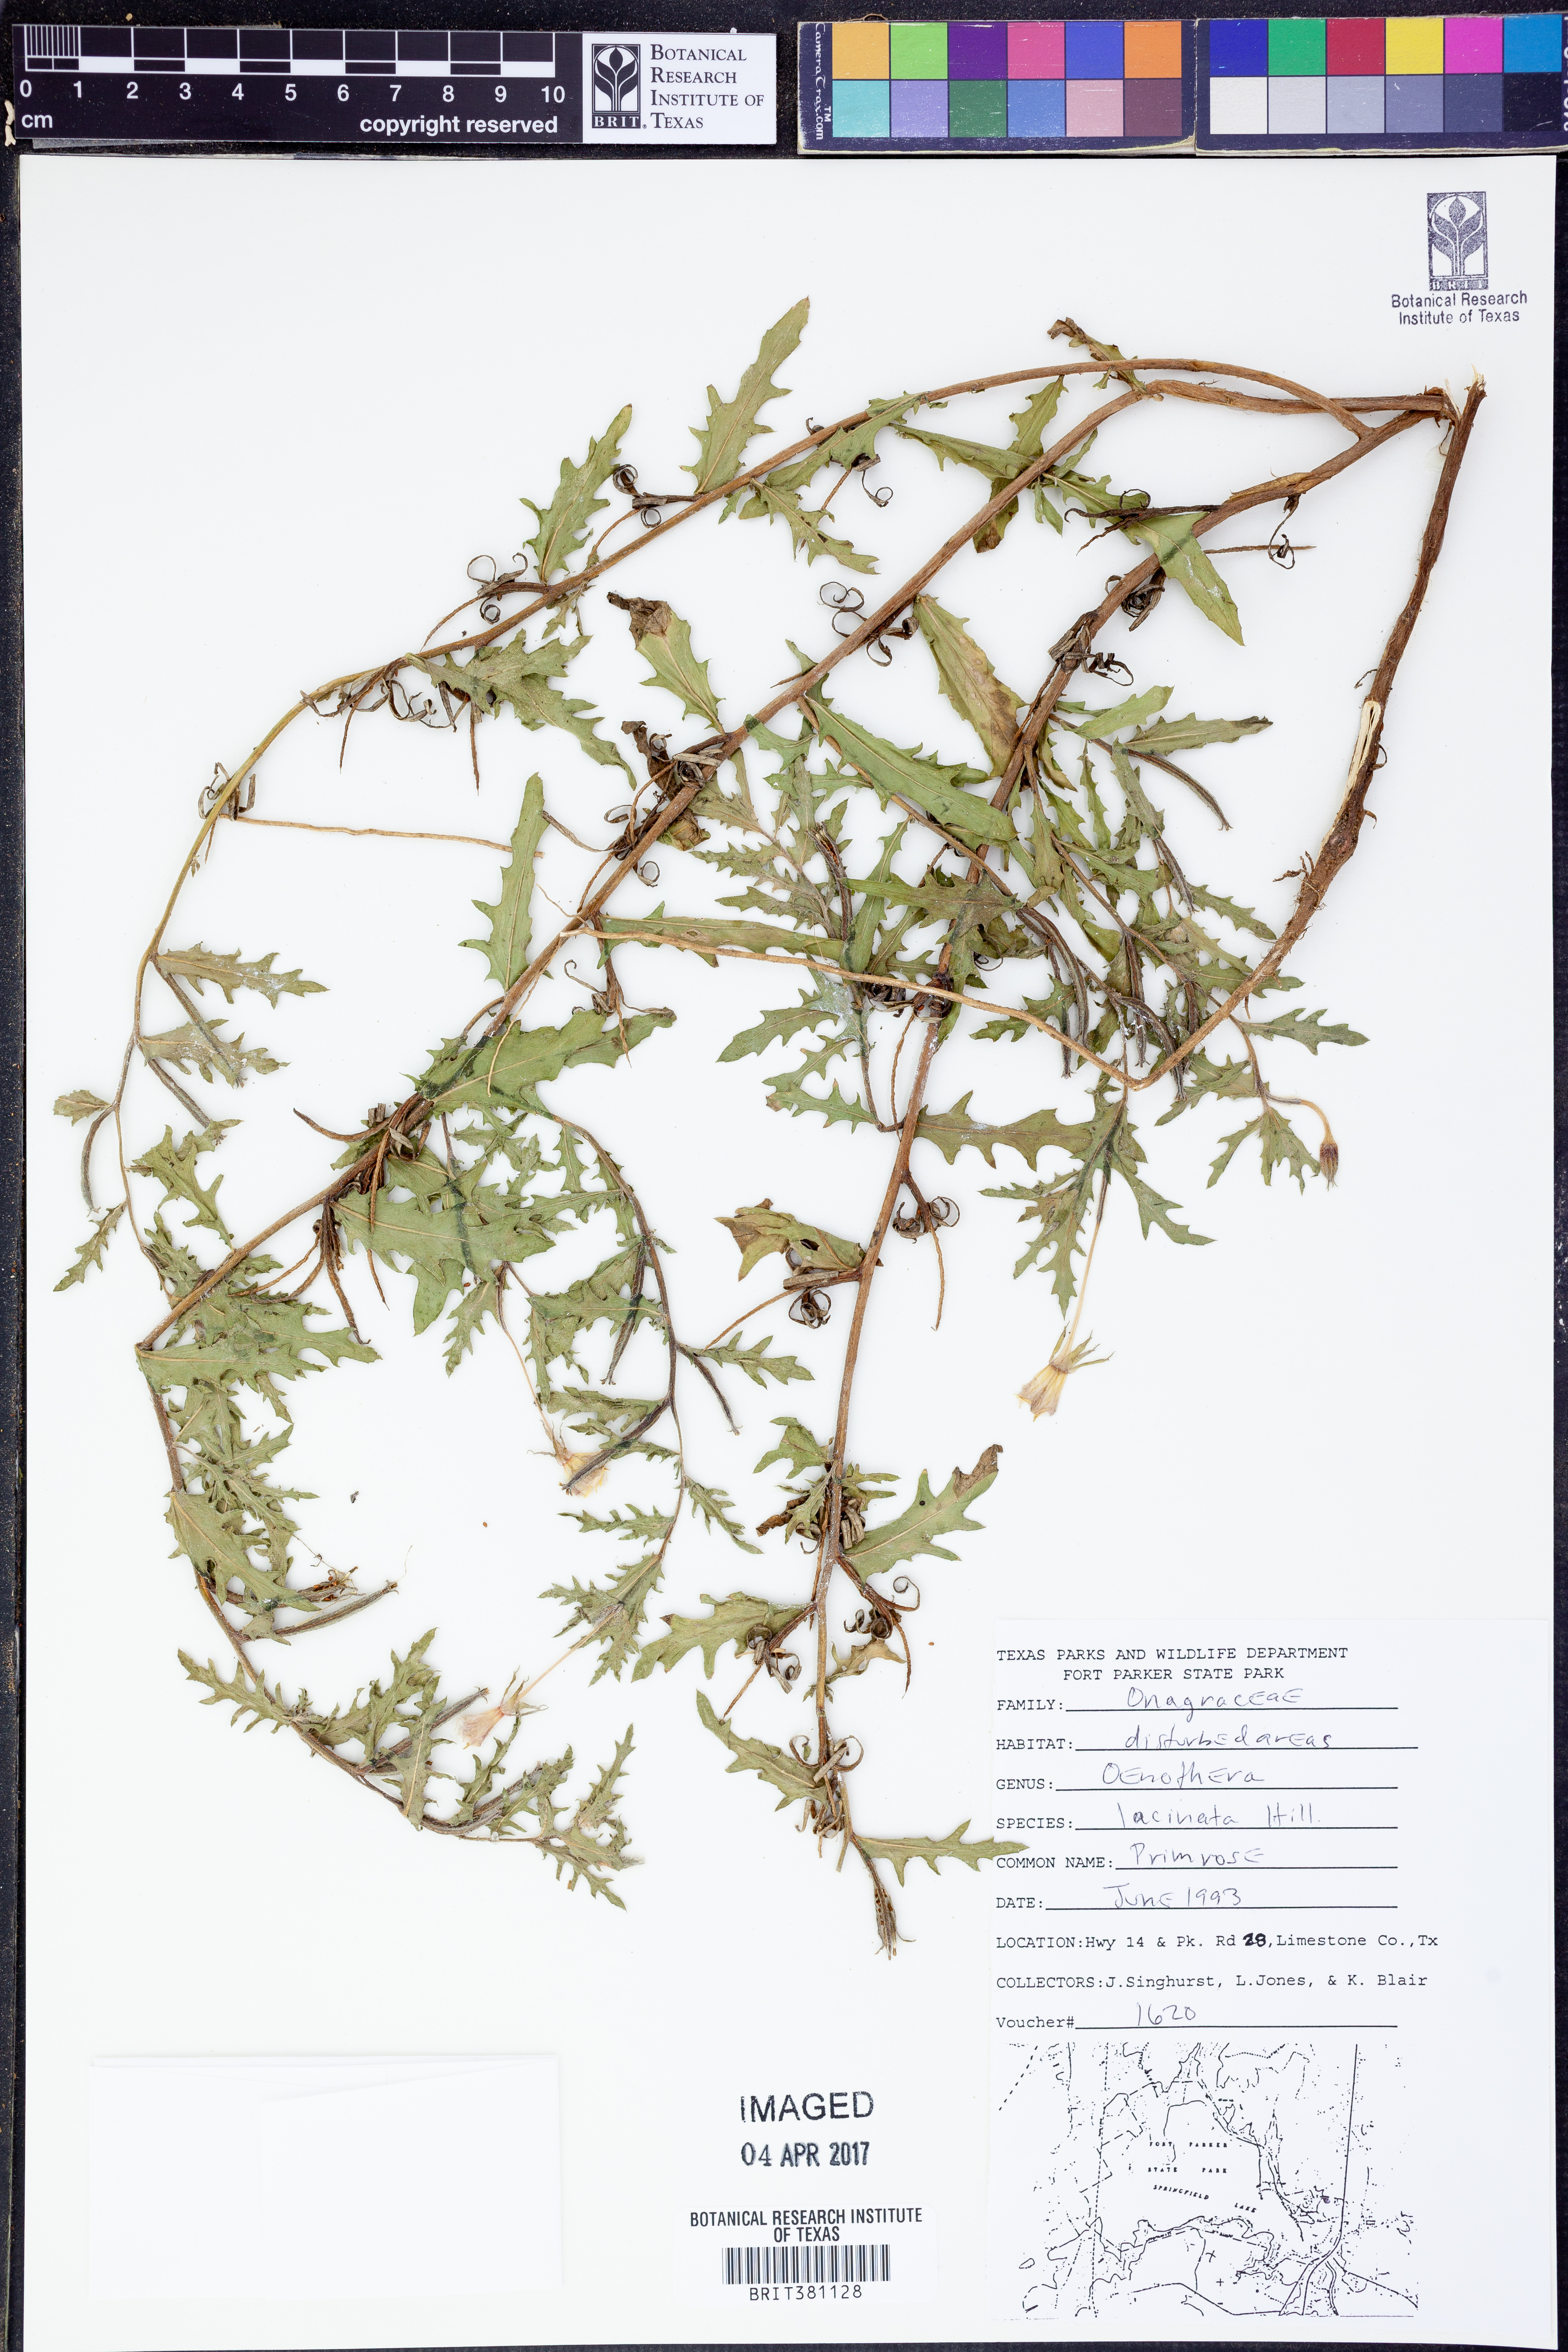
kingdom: Plantae
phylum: Tracheophyta
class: Magnoliopsida
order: Myrtales
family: Onagraceae
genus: Oenothera
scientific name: Oenothera laciniata
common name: Cut-leaved evening-primrose
